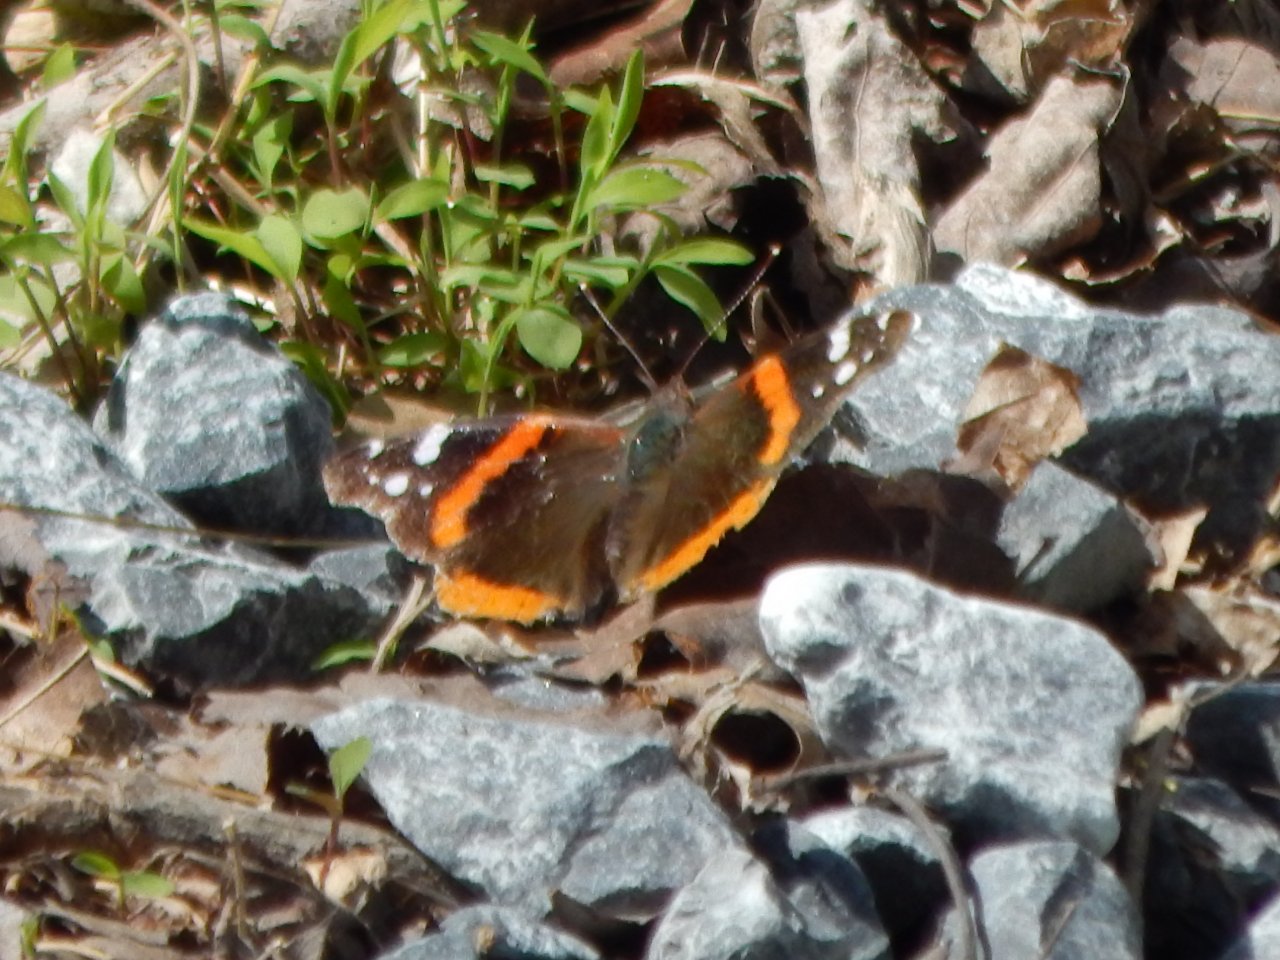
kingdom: Animalia
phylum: Arthropoda
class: Insecta
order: Lepidoptera
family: Nymphalidae
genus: Vanessa
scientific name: Vanessa atalanta
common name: Red Admiral
